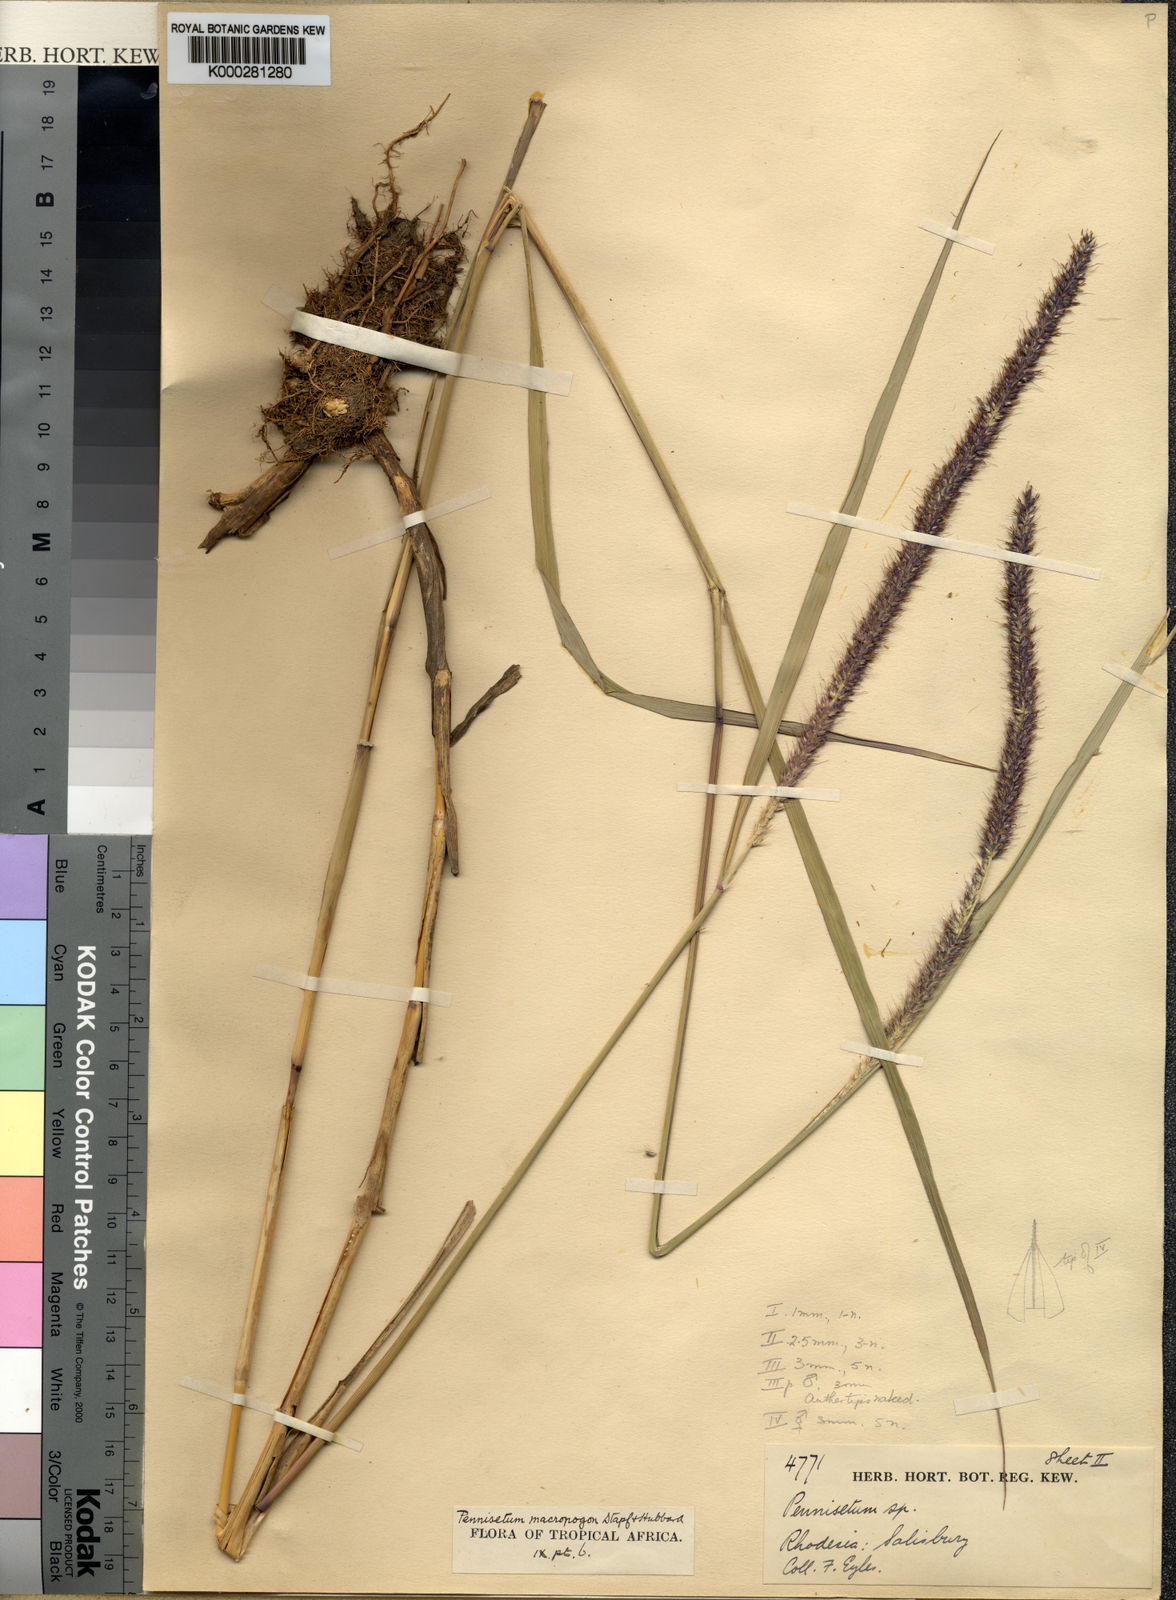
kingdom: Plantae
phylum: Tracheophyta
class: Liliopsida
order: Poales
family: Poaceae
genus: Cenchrus
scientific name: Cenchrus caudatus
